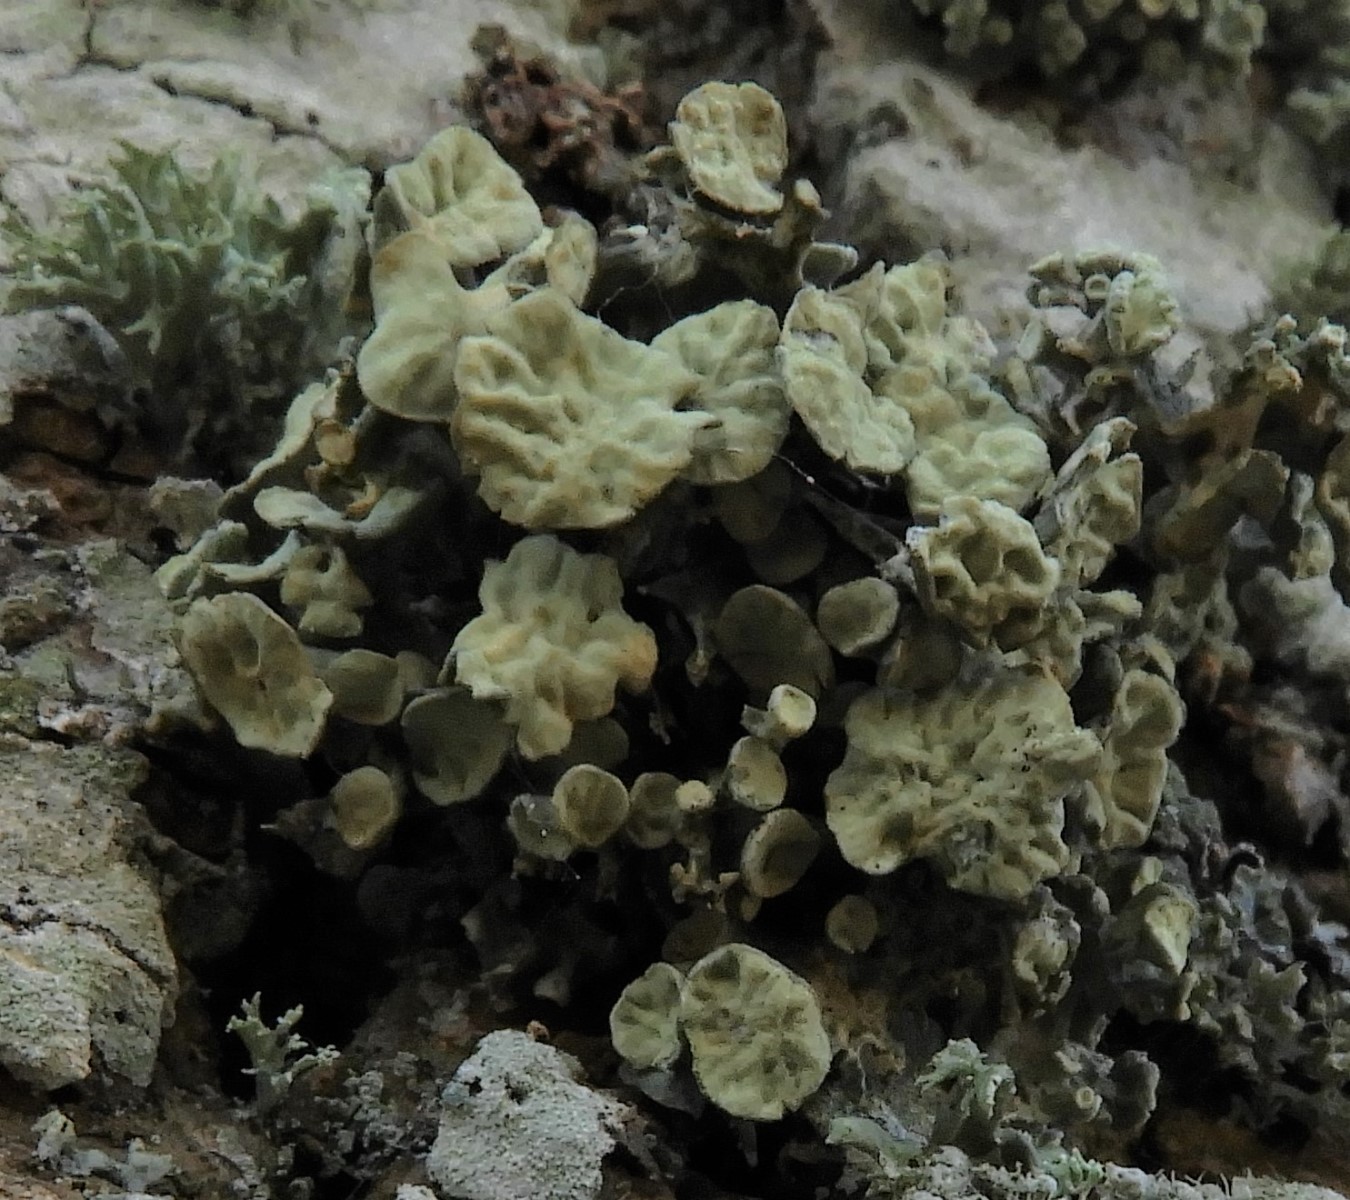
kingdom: Fungi
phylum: Ascomycota
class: Lecanoromycetes
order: Lecanorales
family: Ramalinaceae
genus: Ramalina
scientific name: Ramalina fastigiata
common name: tue-grenlav
